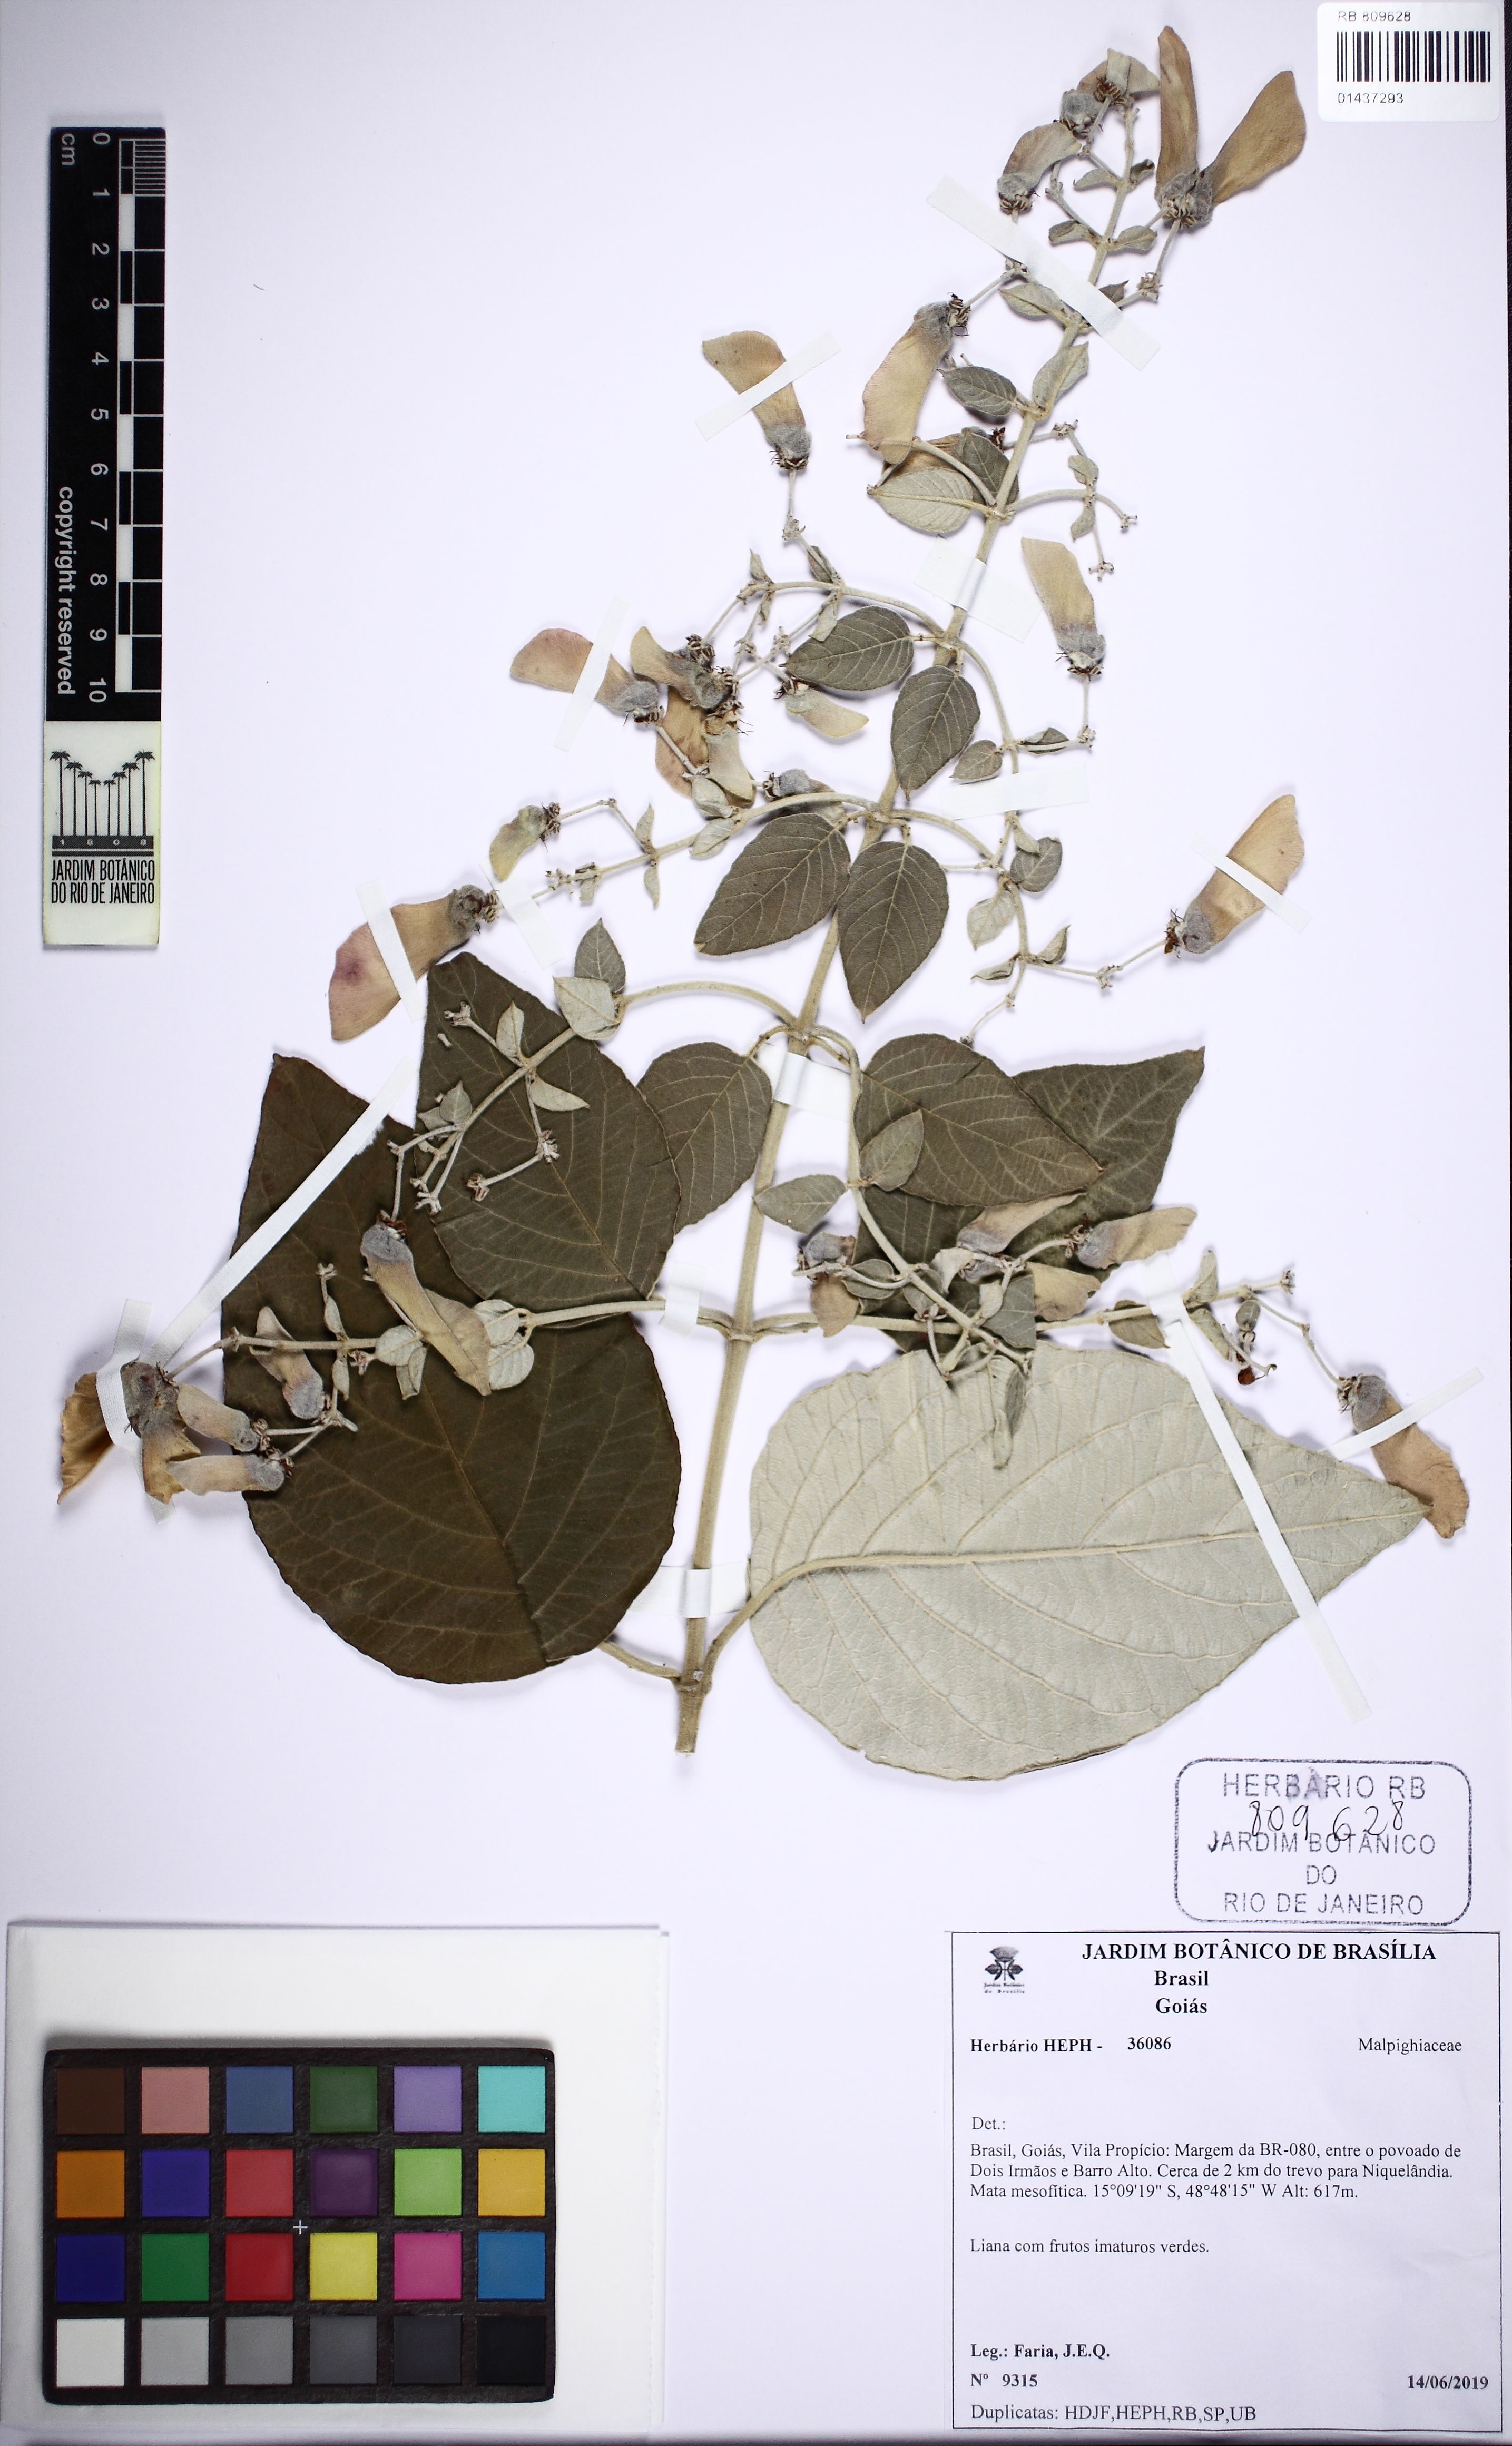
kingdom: Plantae
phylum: Tracheophyta
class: Magnoliopsida
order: Malpighiales
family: Malpighiaceae
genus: Banisteriopsis
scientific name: Banisteriopsis
